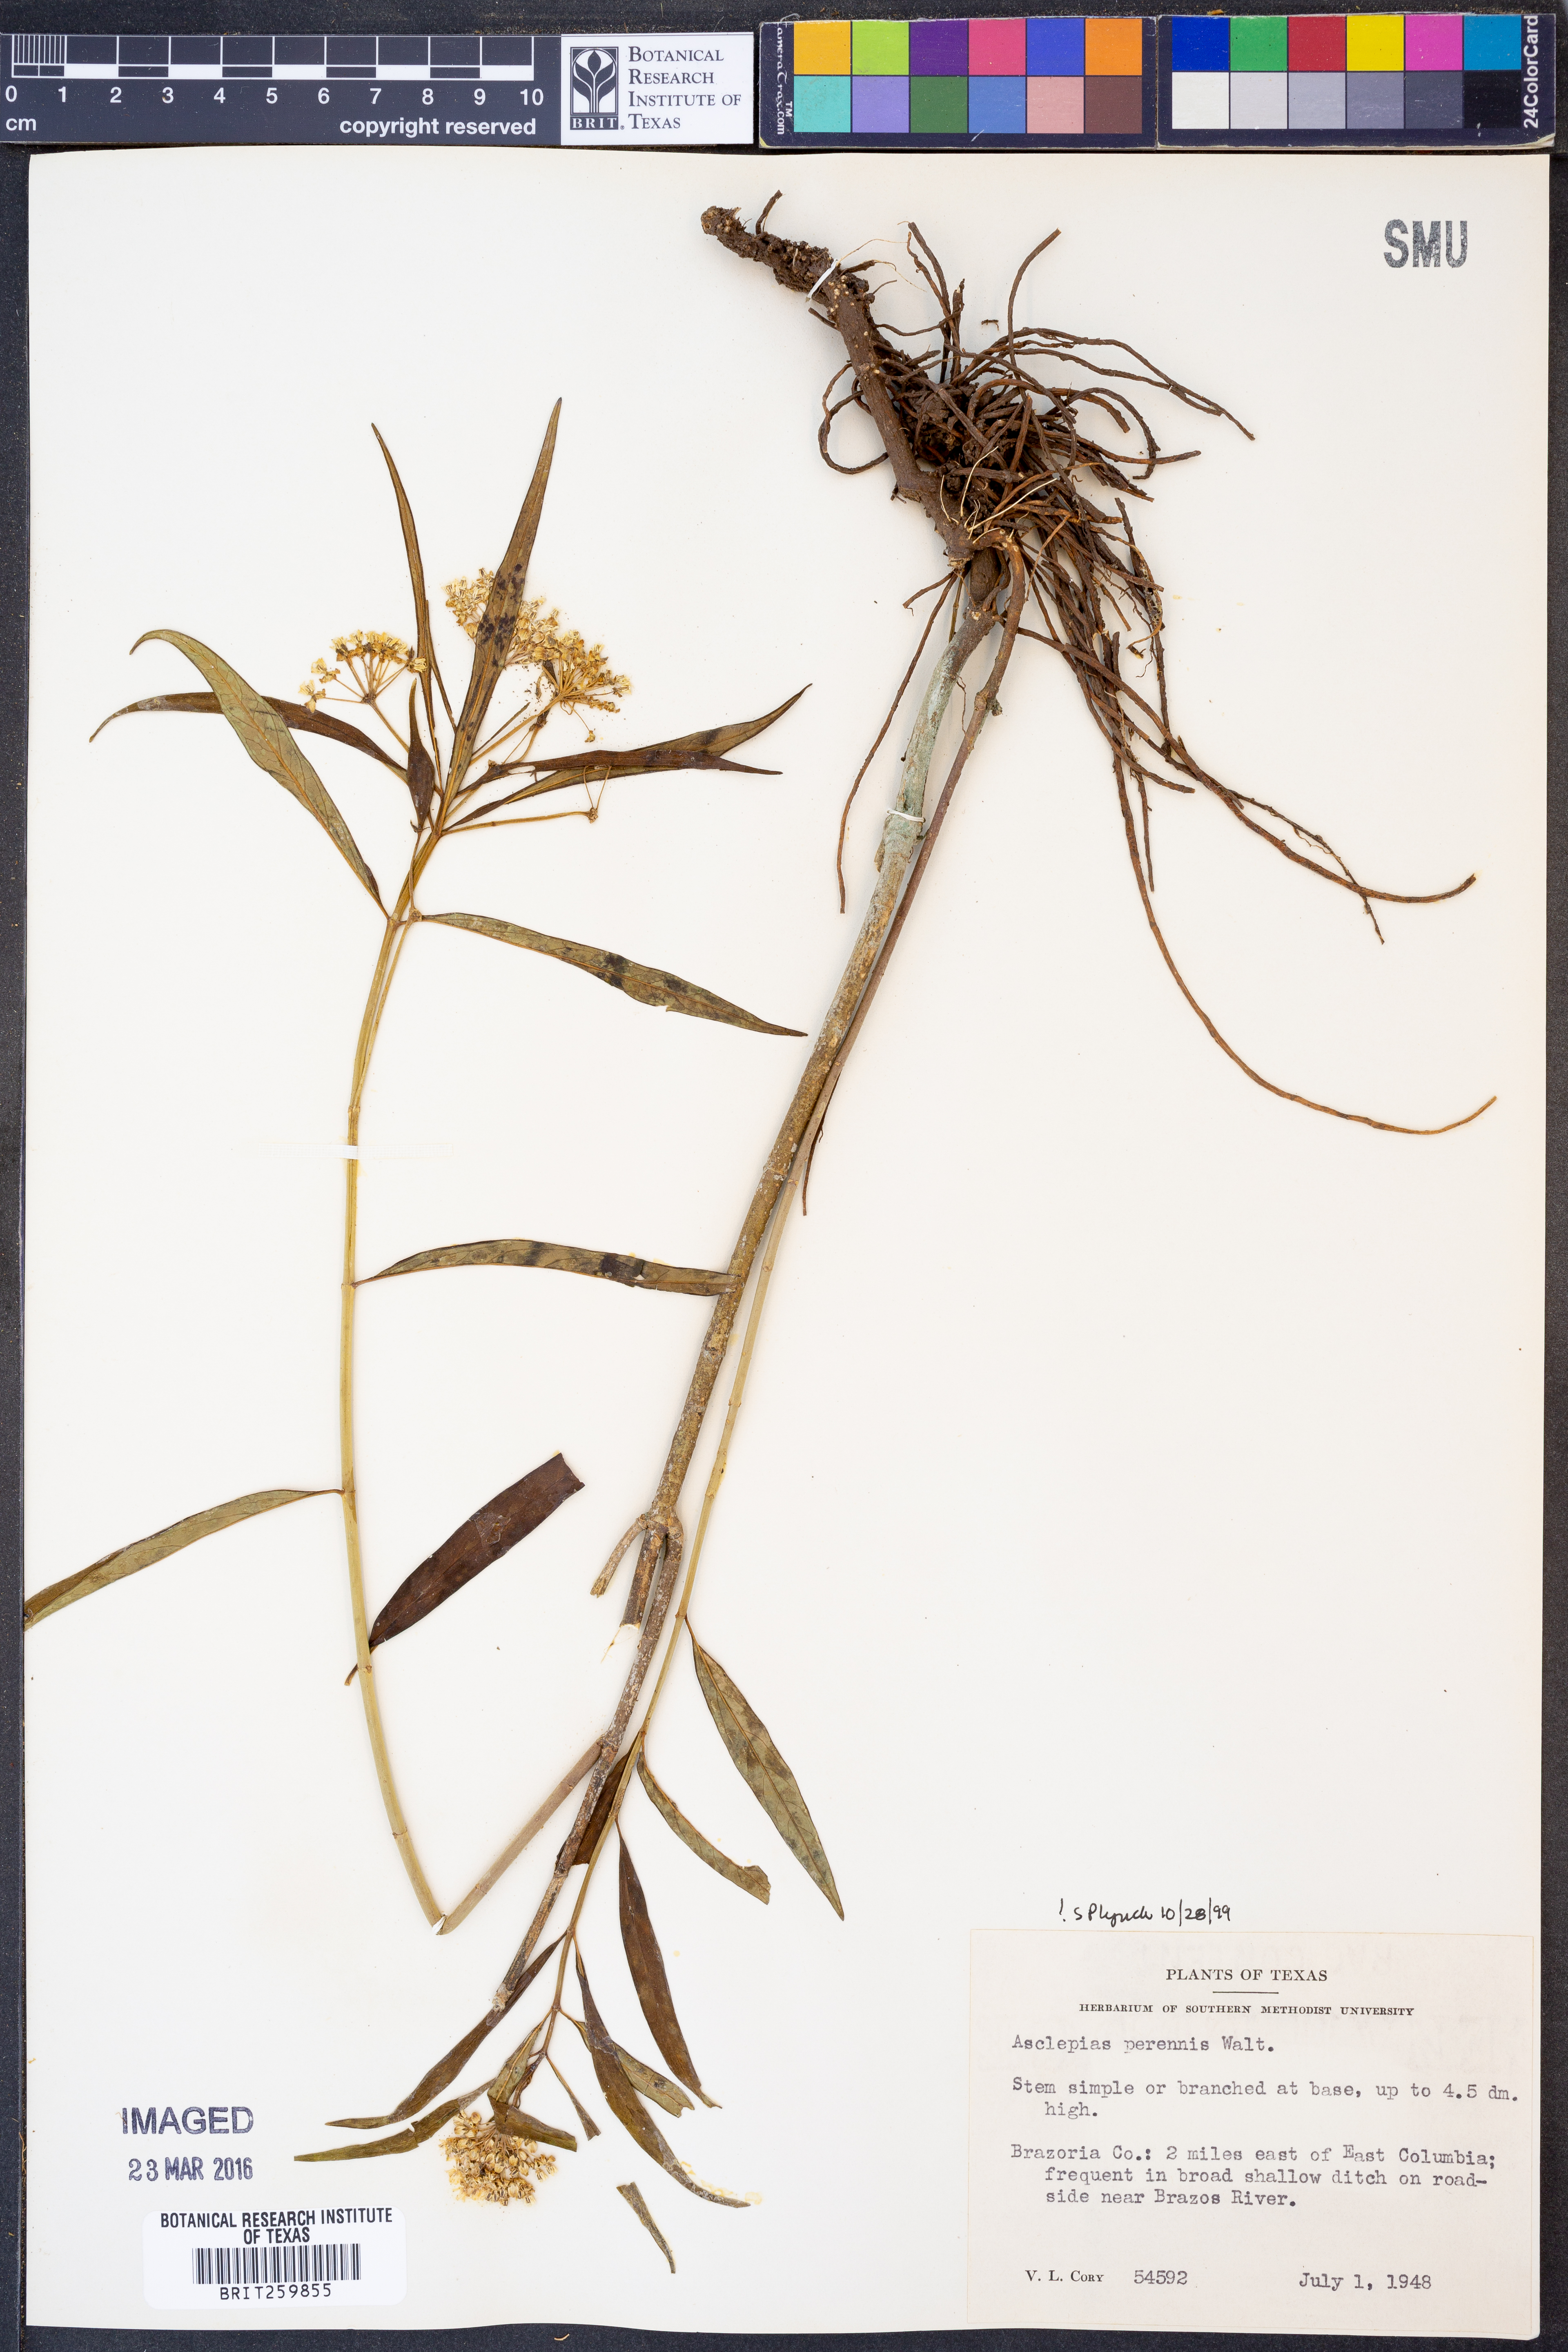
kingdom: Plantae
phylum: Tracheophyta
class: Magnoliopsida
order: Gentianales
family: Apocynaceae
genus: Asclepias
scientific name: Asclepias perennis
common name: Smooth-seed milkweed
